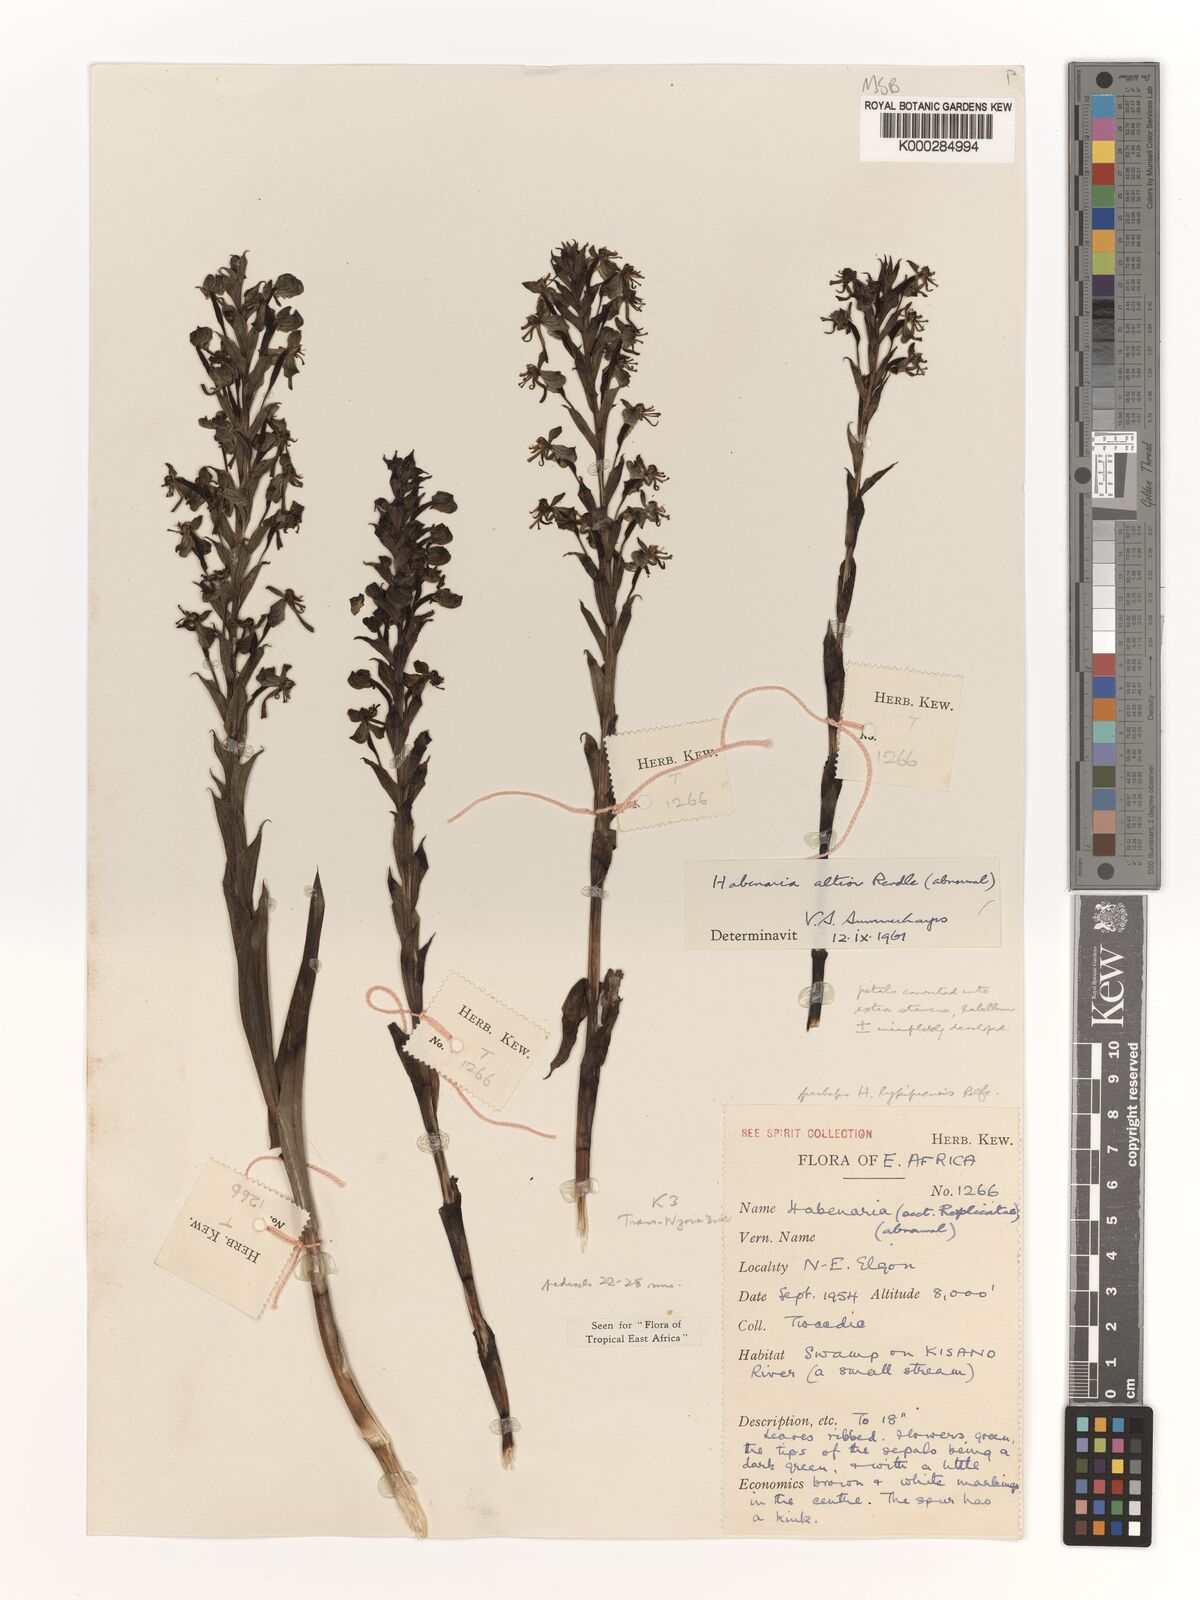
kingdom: Plantae
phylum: Tracheophyta
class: Liliopsida
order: Asparagales
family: Orchidaceae
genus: Habenaria
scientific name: Habenaria altior
